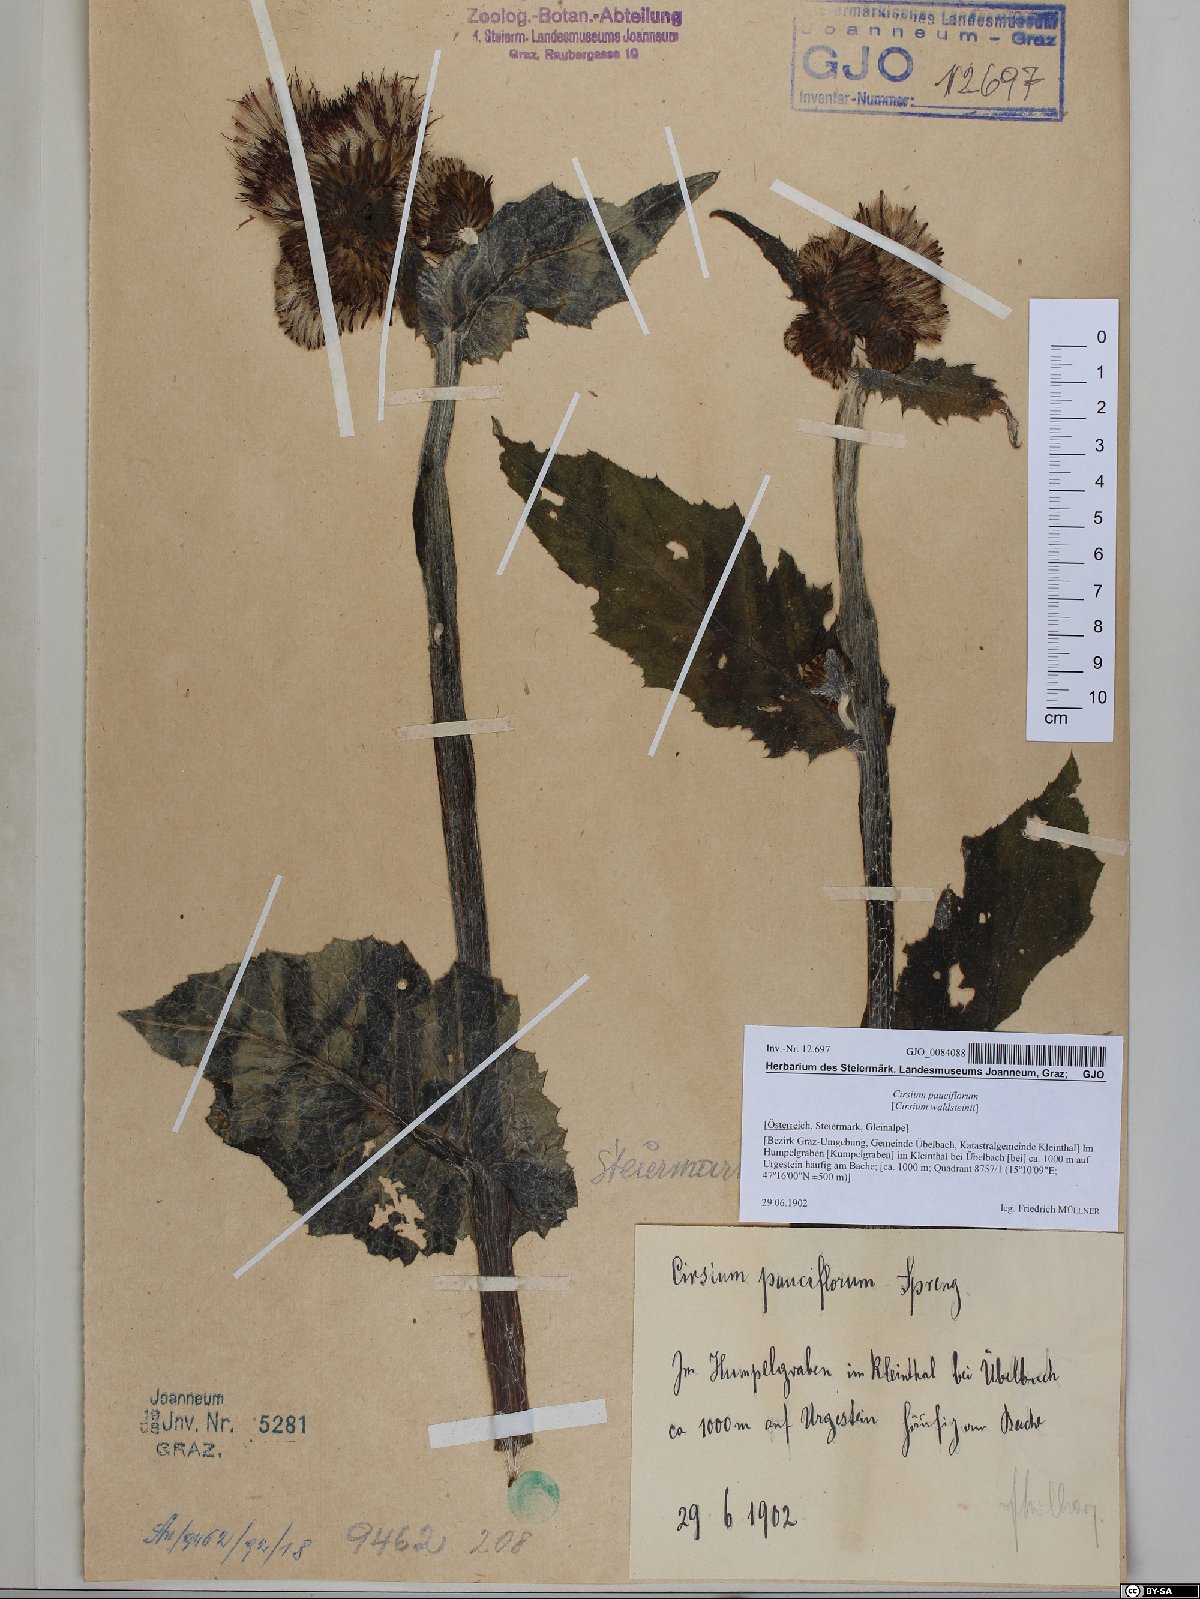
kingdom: Plantae
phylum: Tracheophyta
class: Magnoliopsida
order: Asterales
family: Asteraceae
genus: Cirsium
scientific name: Cirsium greimleri
